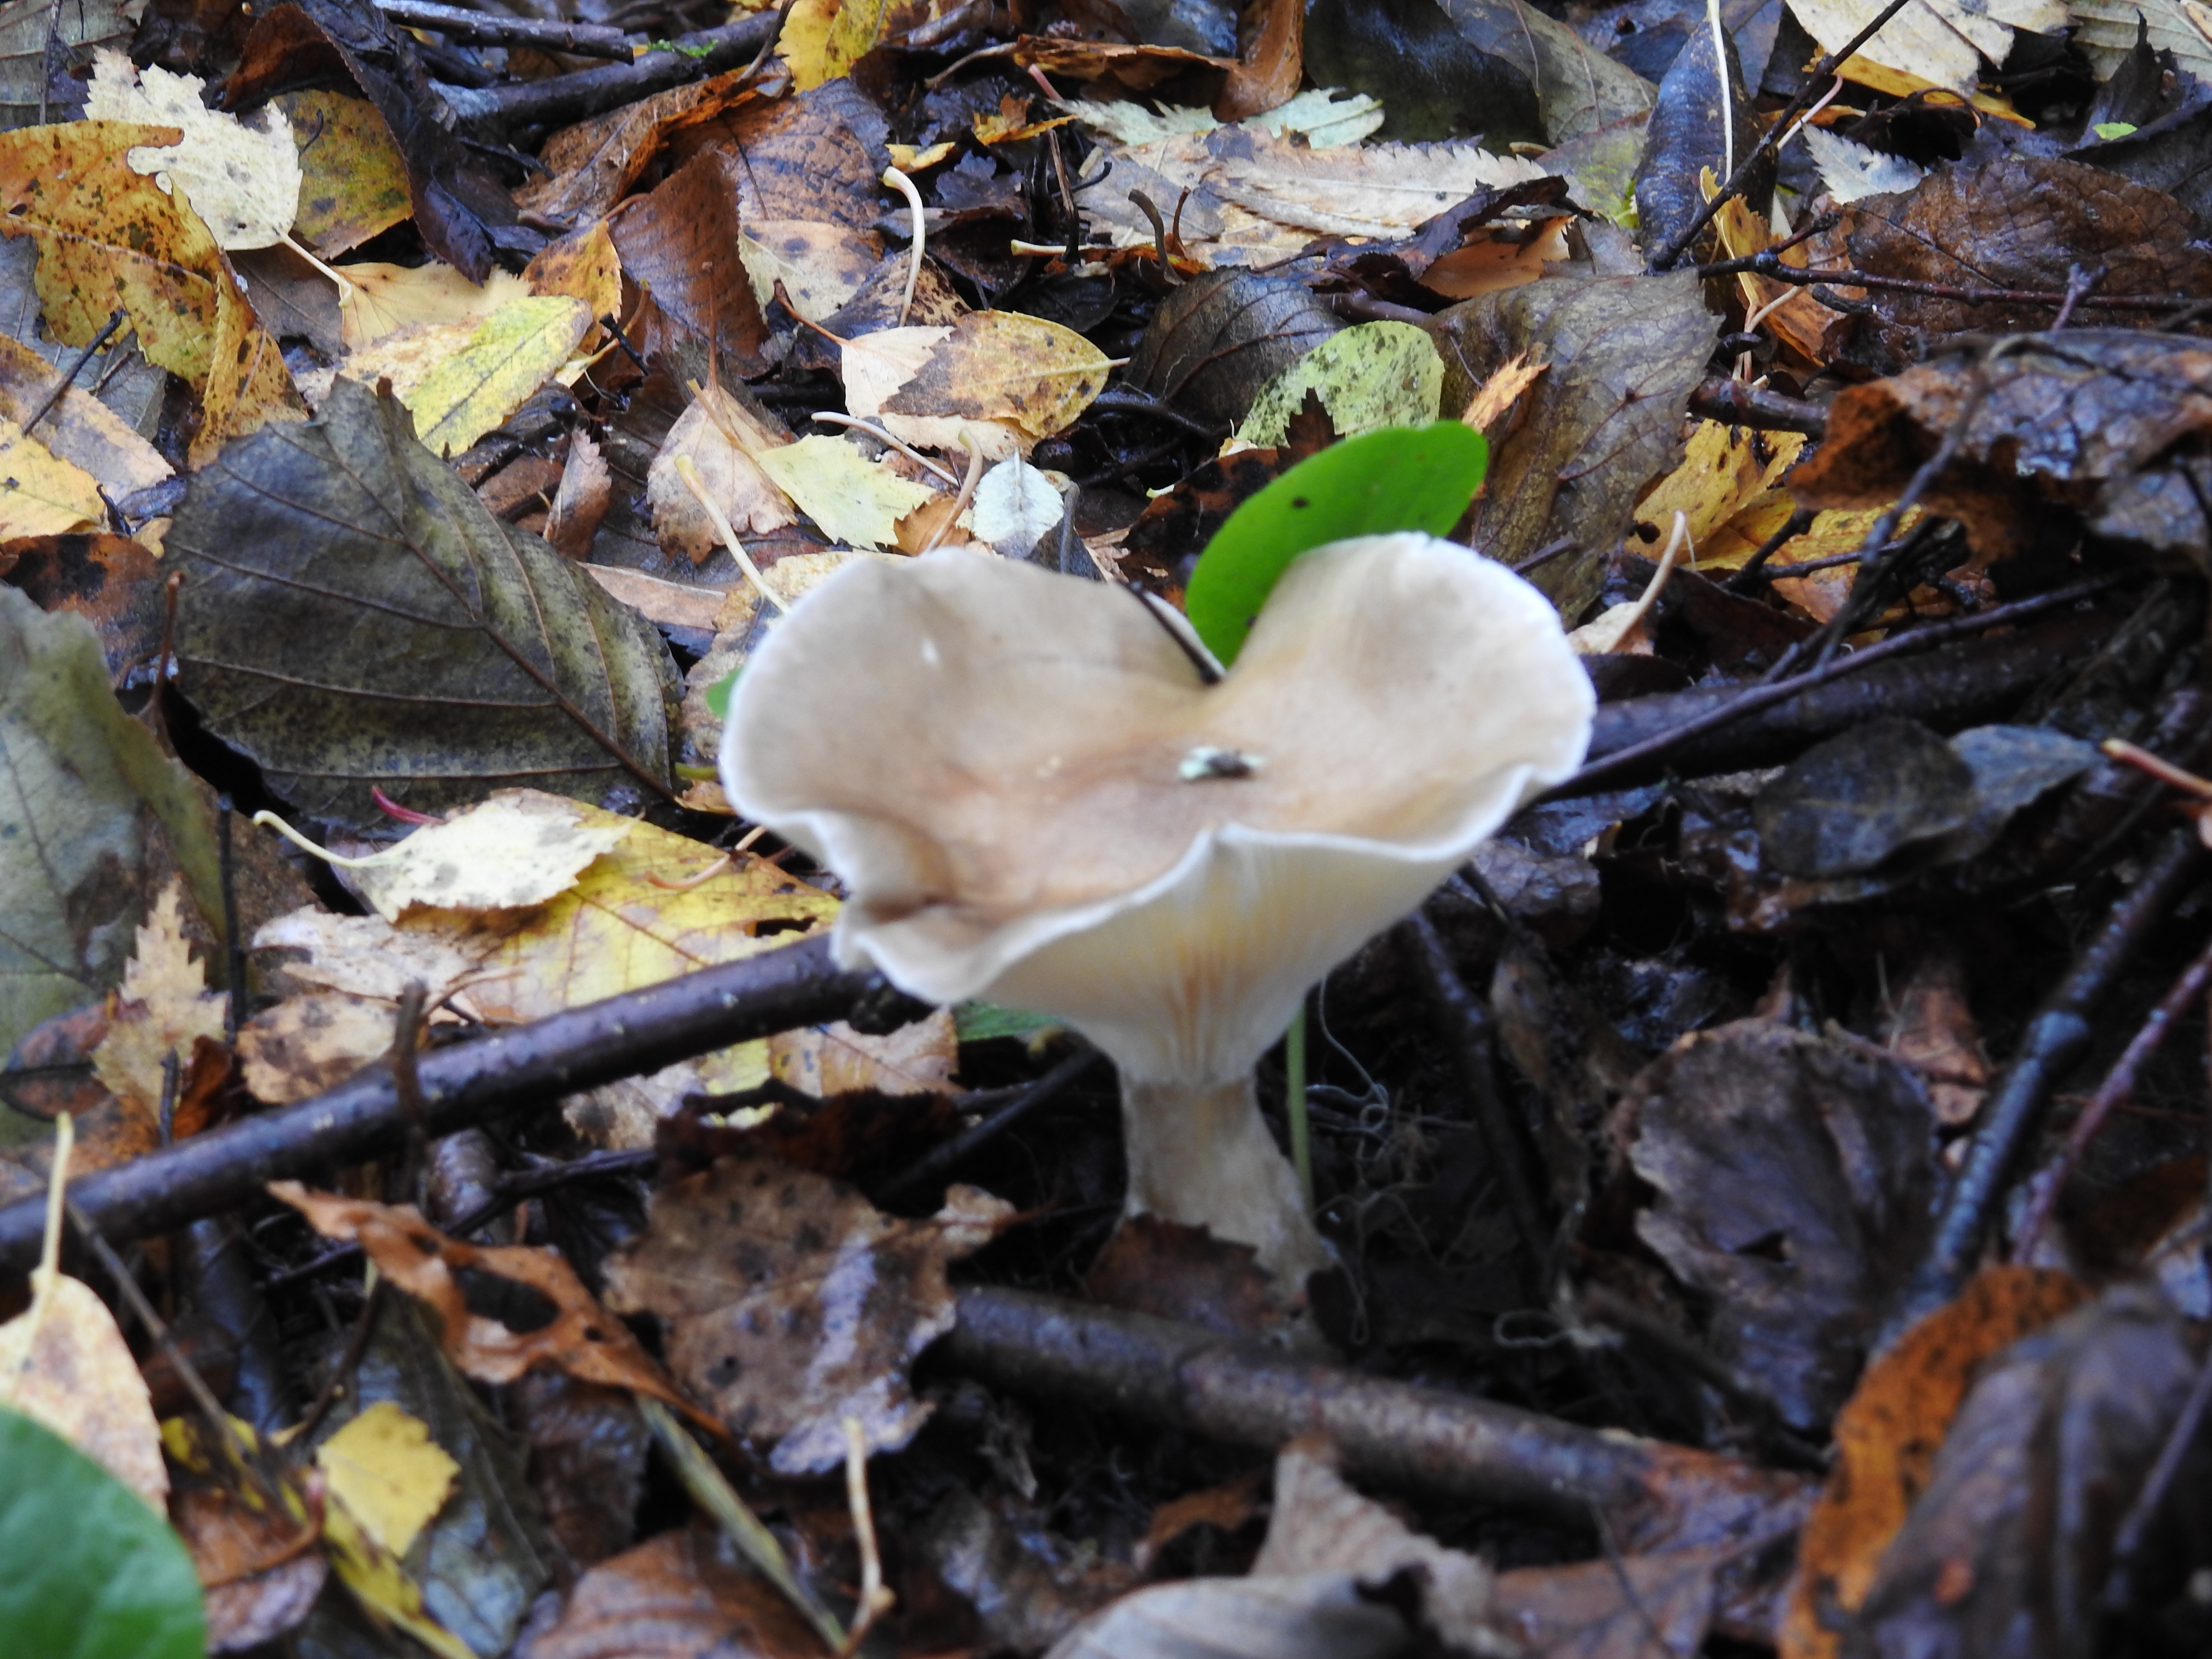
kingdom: Fungi
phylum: Basidiomycota
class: Agaricomycetes
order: Agaricales
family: Hygrophoraceae
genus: Ampulloclitocybe
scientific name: Ampulloclitocybe clavipes
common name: Club foot
